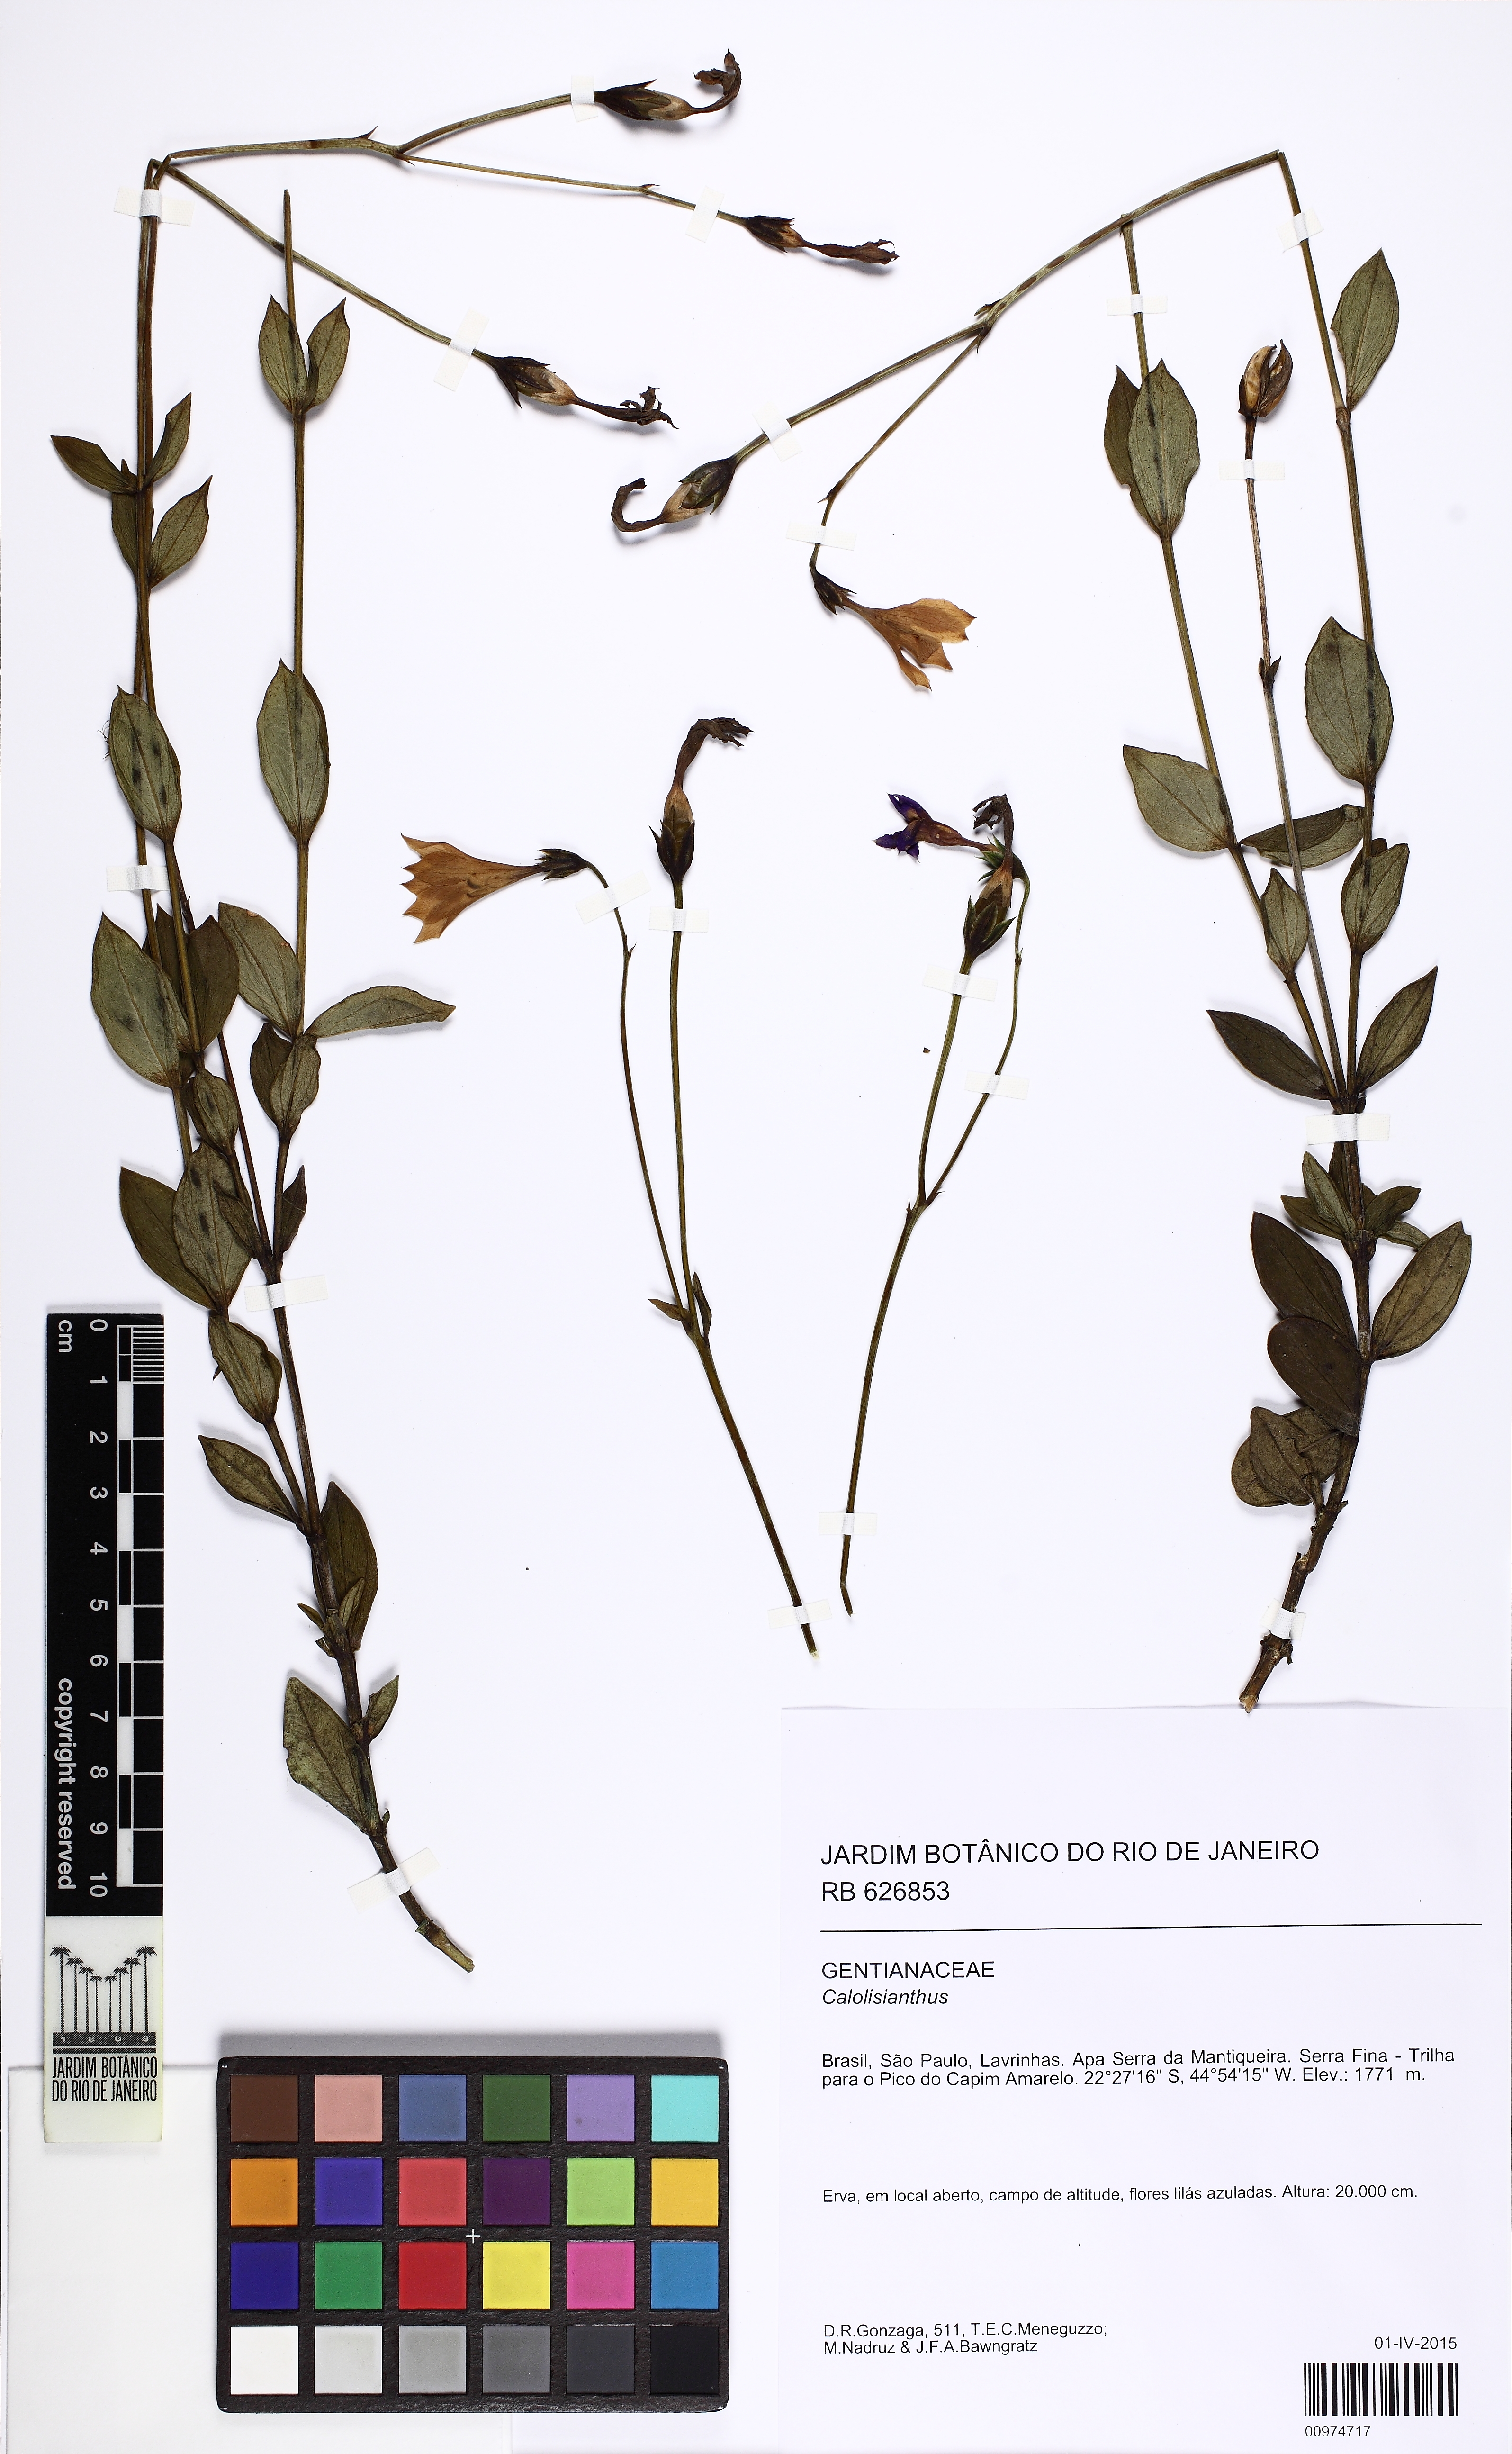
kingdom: Plantae
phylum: Tracheophyta
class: Magnoliopsida
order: Gentianales
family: Gentianaceae
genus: Calolisianthus
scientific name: Calolisianthus pendulus
